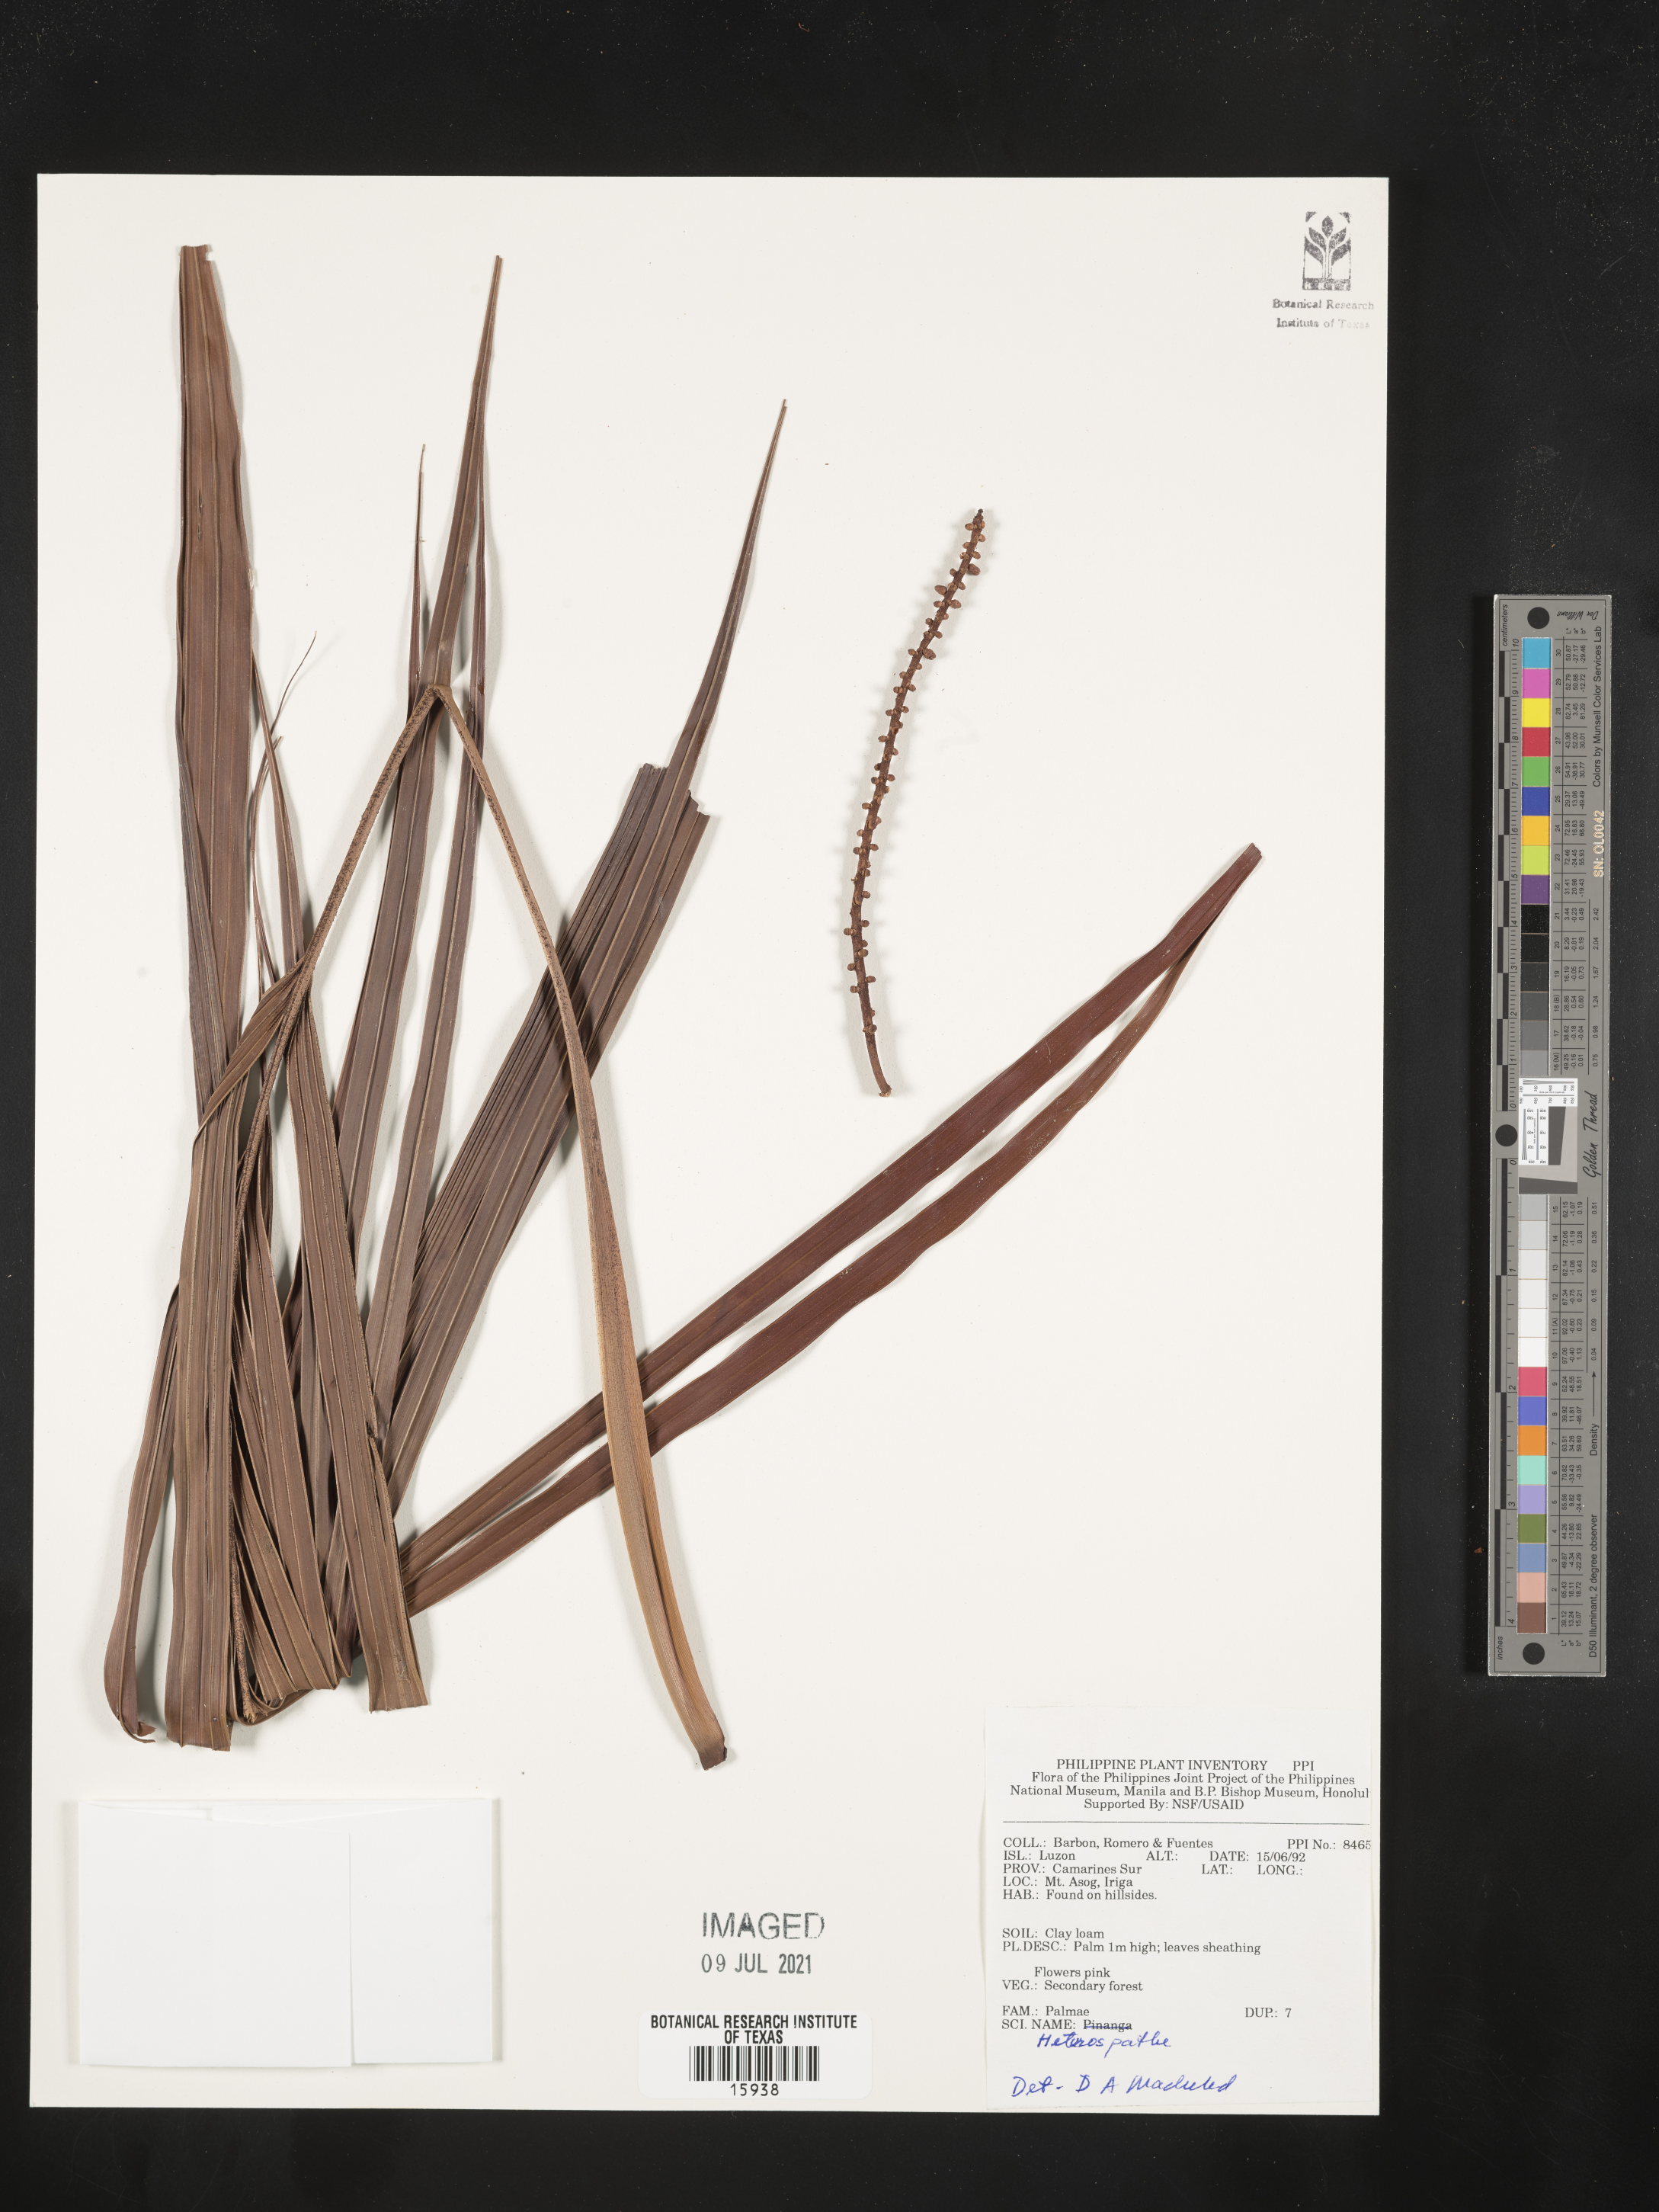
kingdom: Plantae
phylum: Tracheophyta
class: Liliopsida
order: Arecales
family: Arecaceae
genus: Heterospathe
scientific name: Heterospathe
